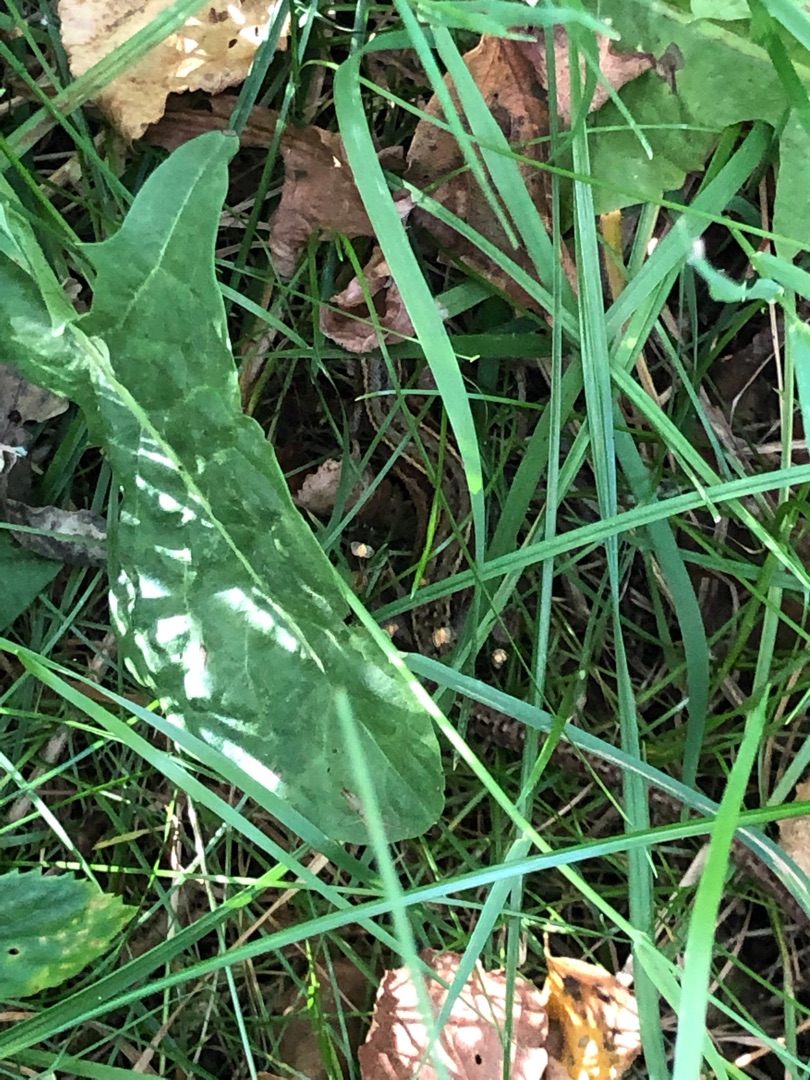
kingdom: Animalia
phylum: Chordata
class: Squamata
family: Lacertidae
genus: Zootoca
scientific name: Zootoca vivipara
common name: Skovfirben
